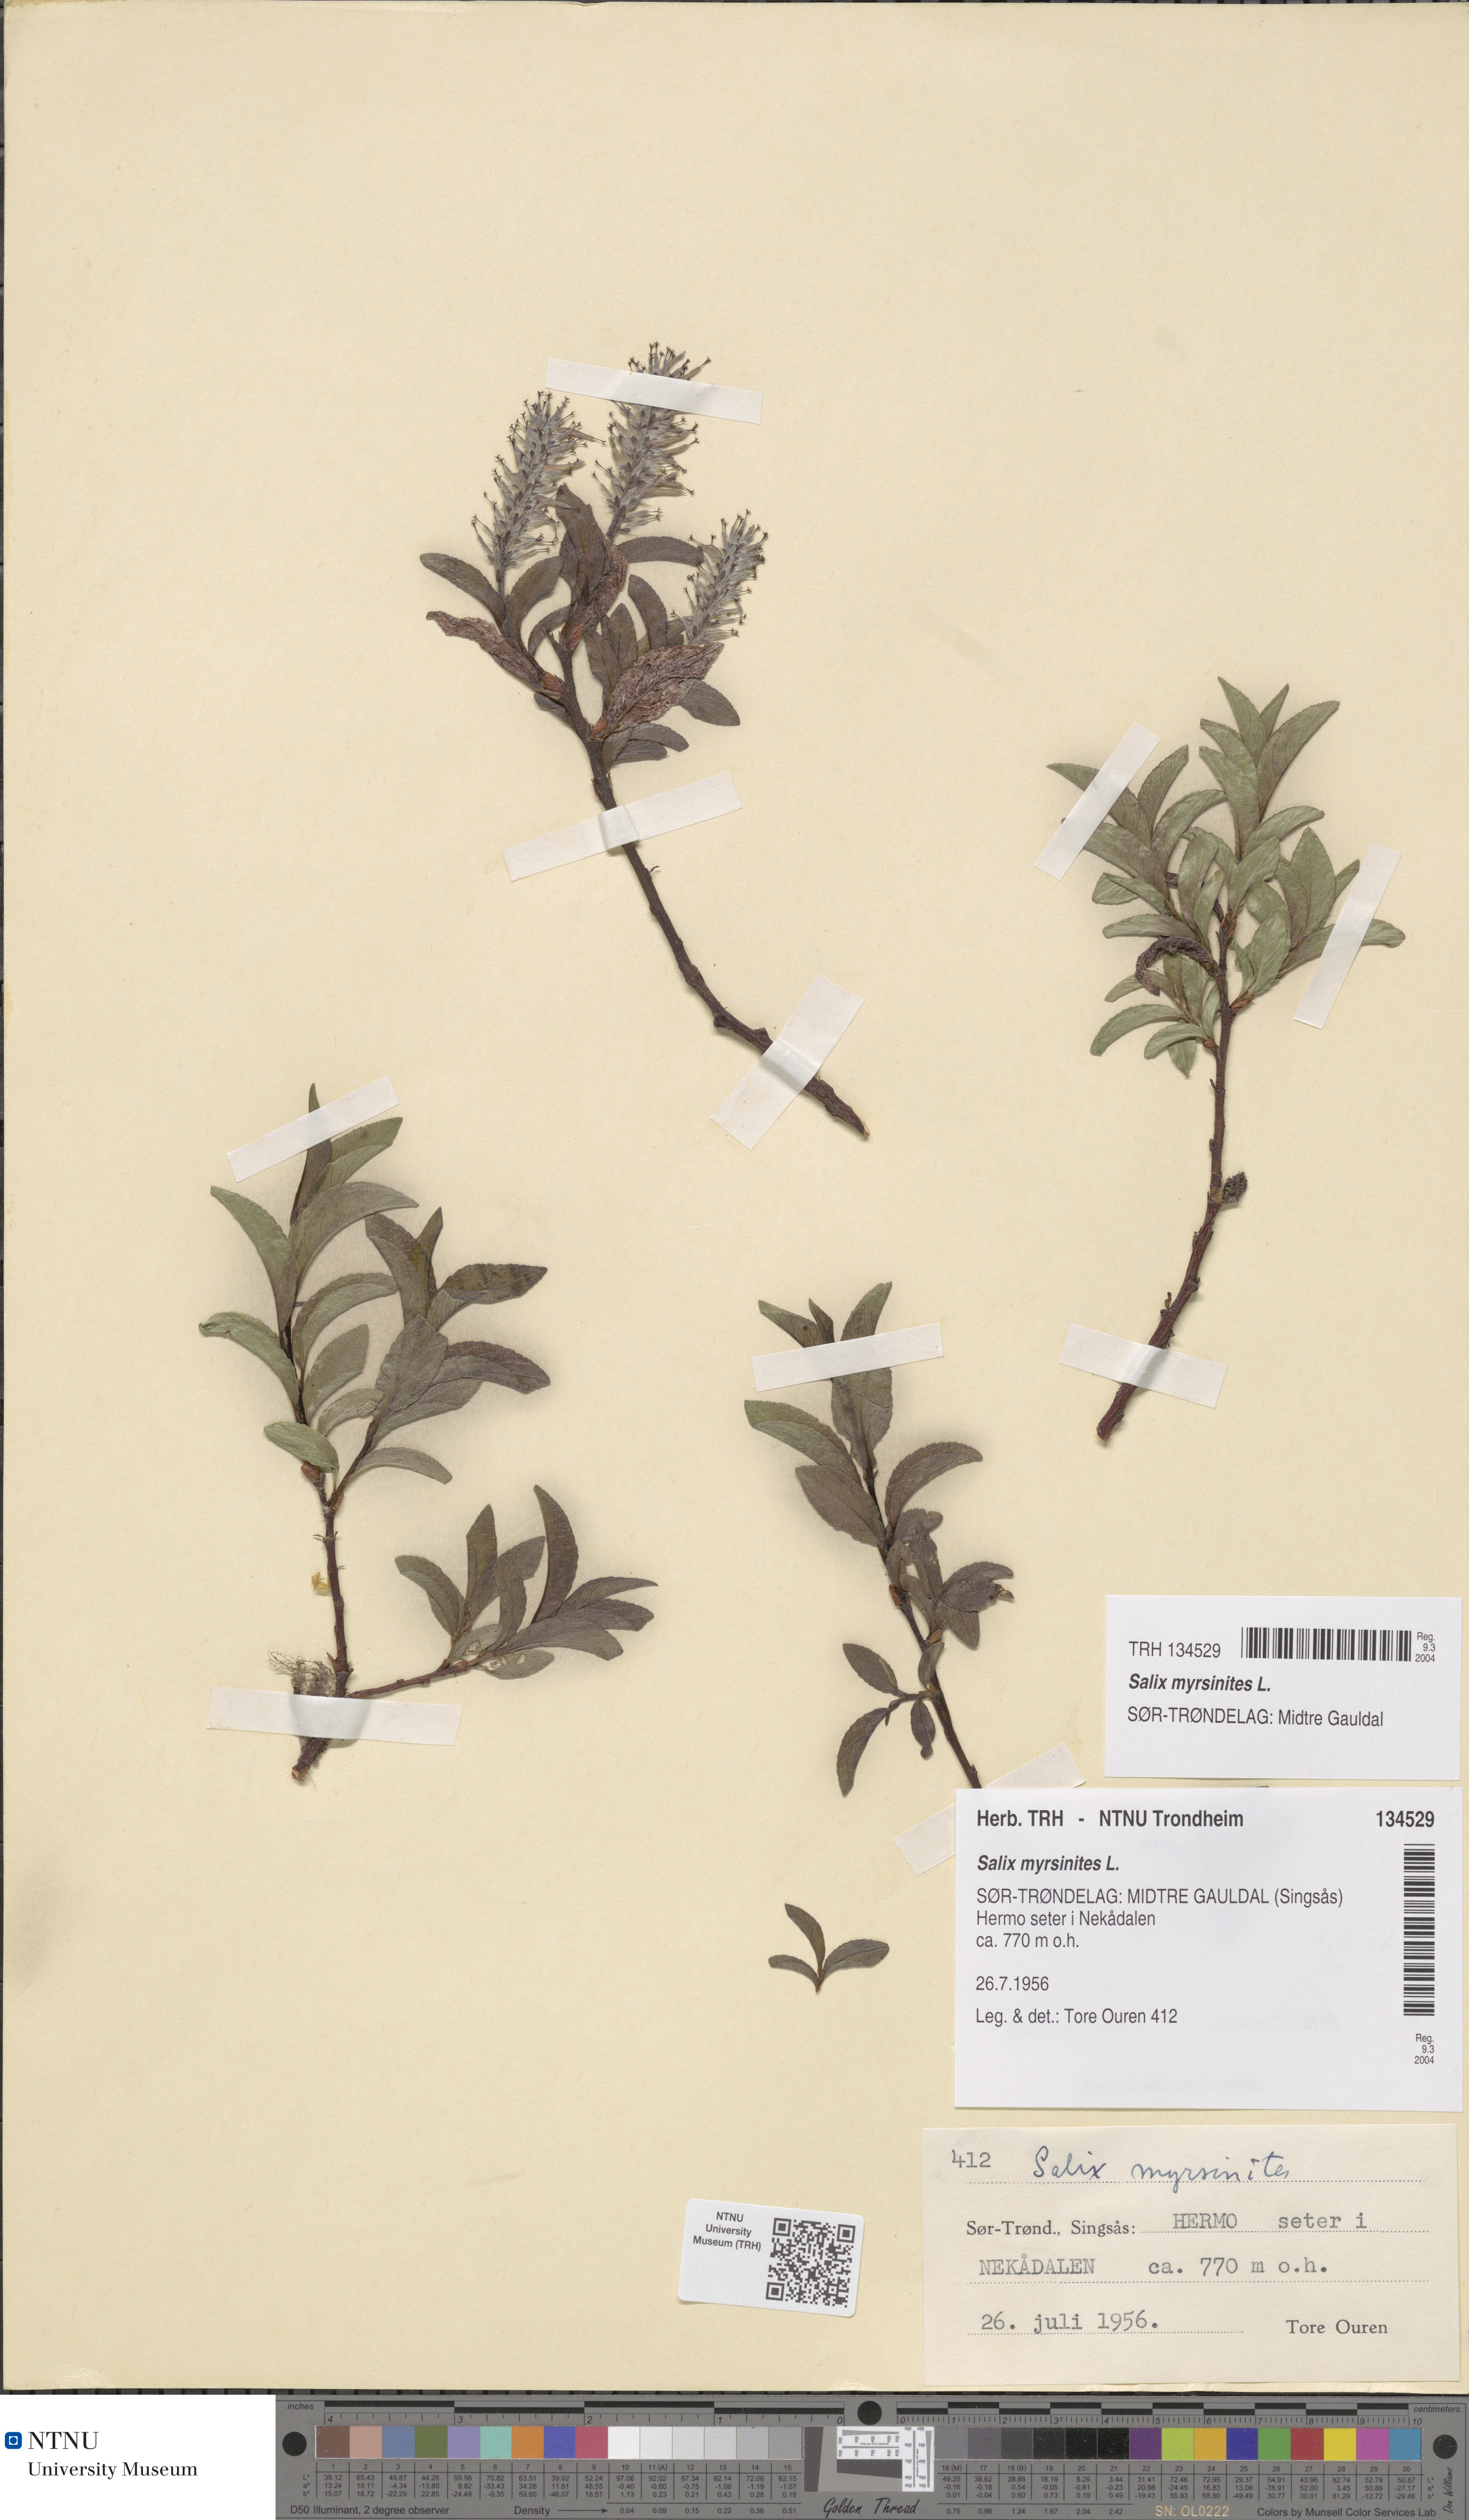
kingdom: Plantae
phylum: Tracheophyta
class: Magnoliopsida
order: Malpighiales
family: Salicaceae
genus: Salix
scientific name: Salix myrsinites
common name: Myrtle willow
